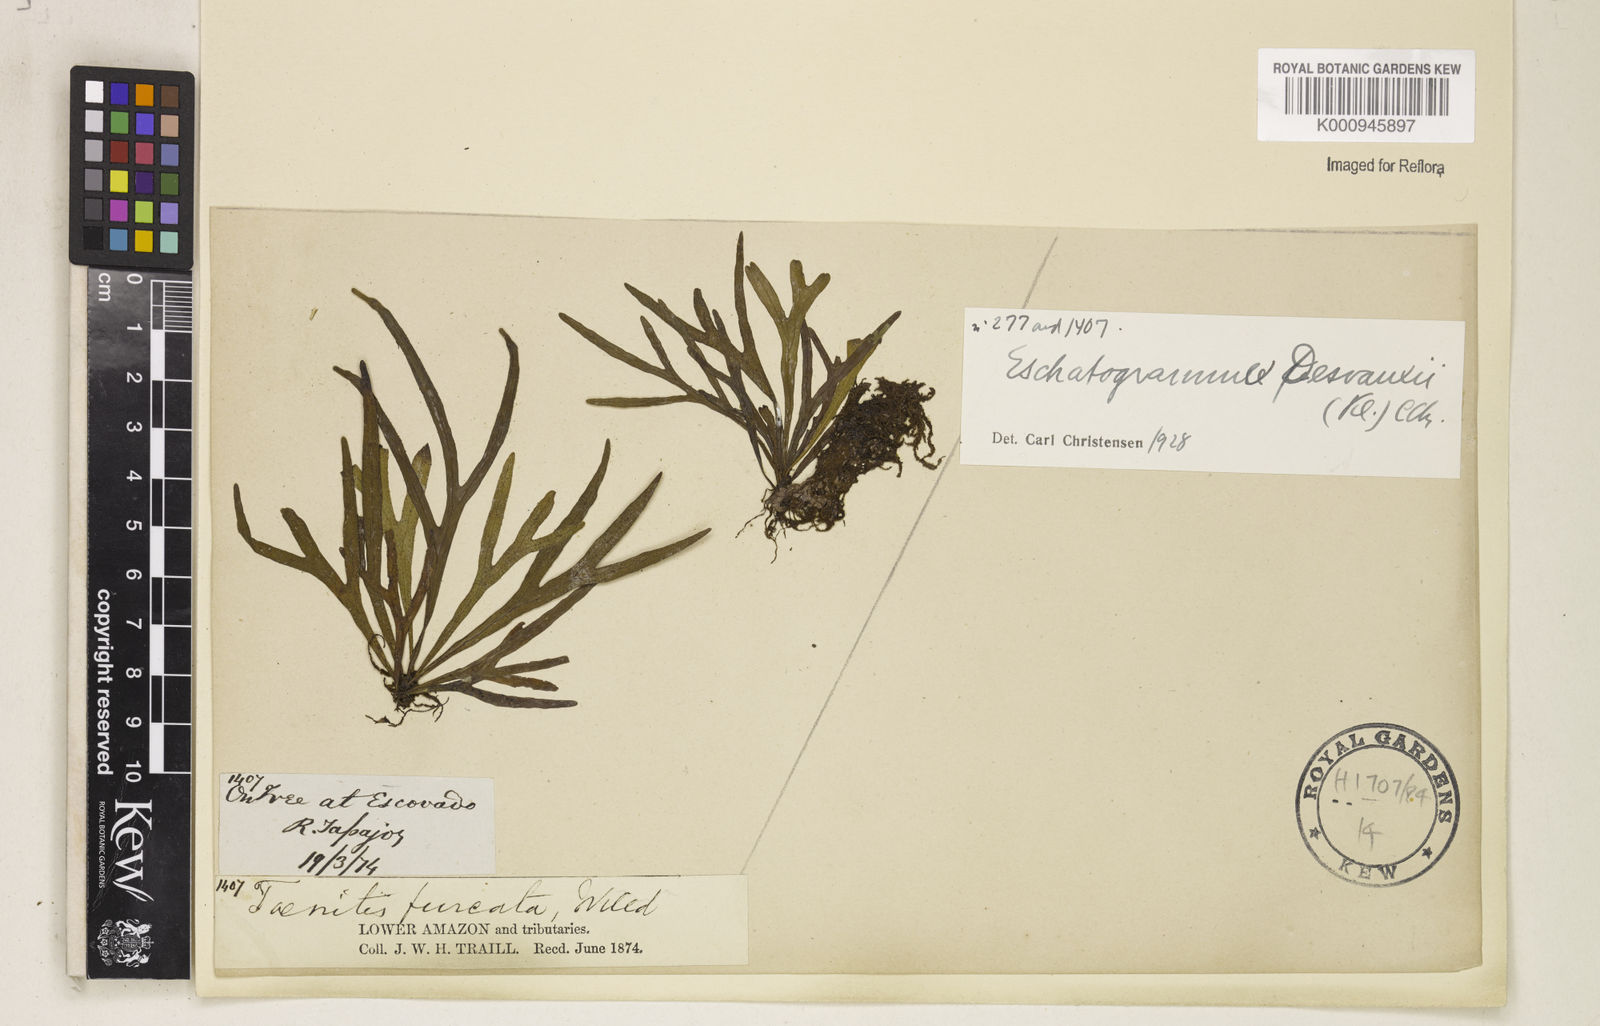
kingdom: Plantae
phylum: Tracheophyta
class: Polypodiopsida
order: Polypodiales
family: Polypodiaceae
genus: Pleopeltis
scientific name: Pleopeltis desvauxii
